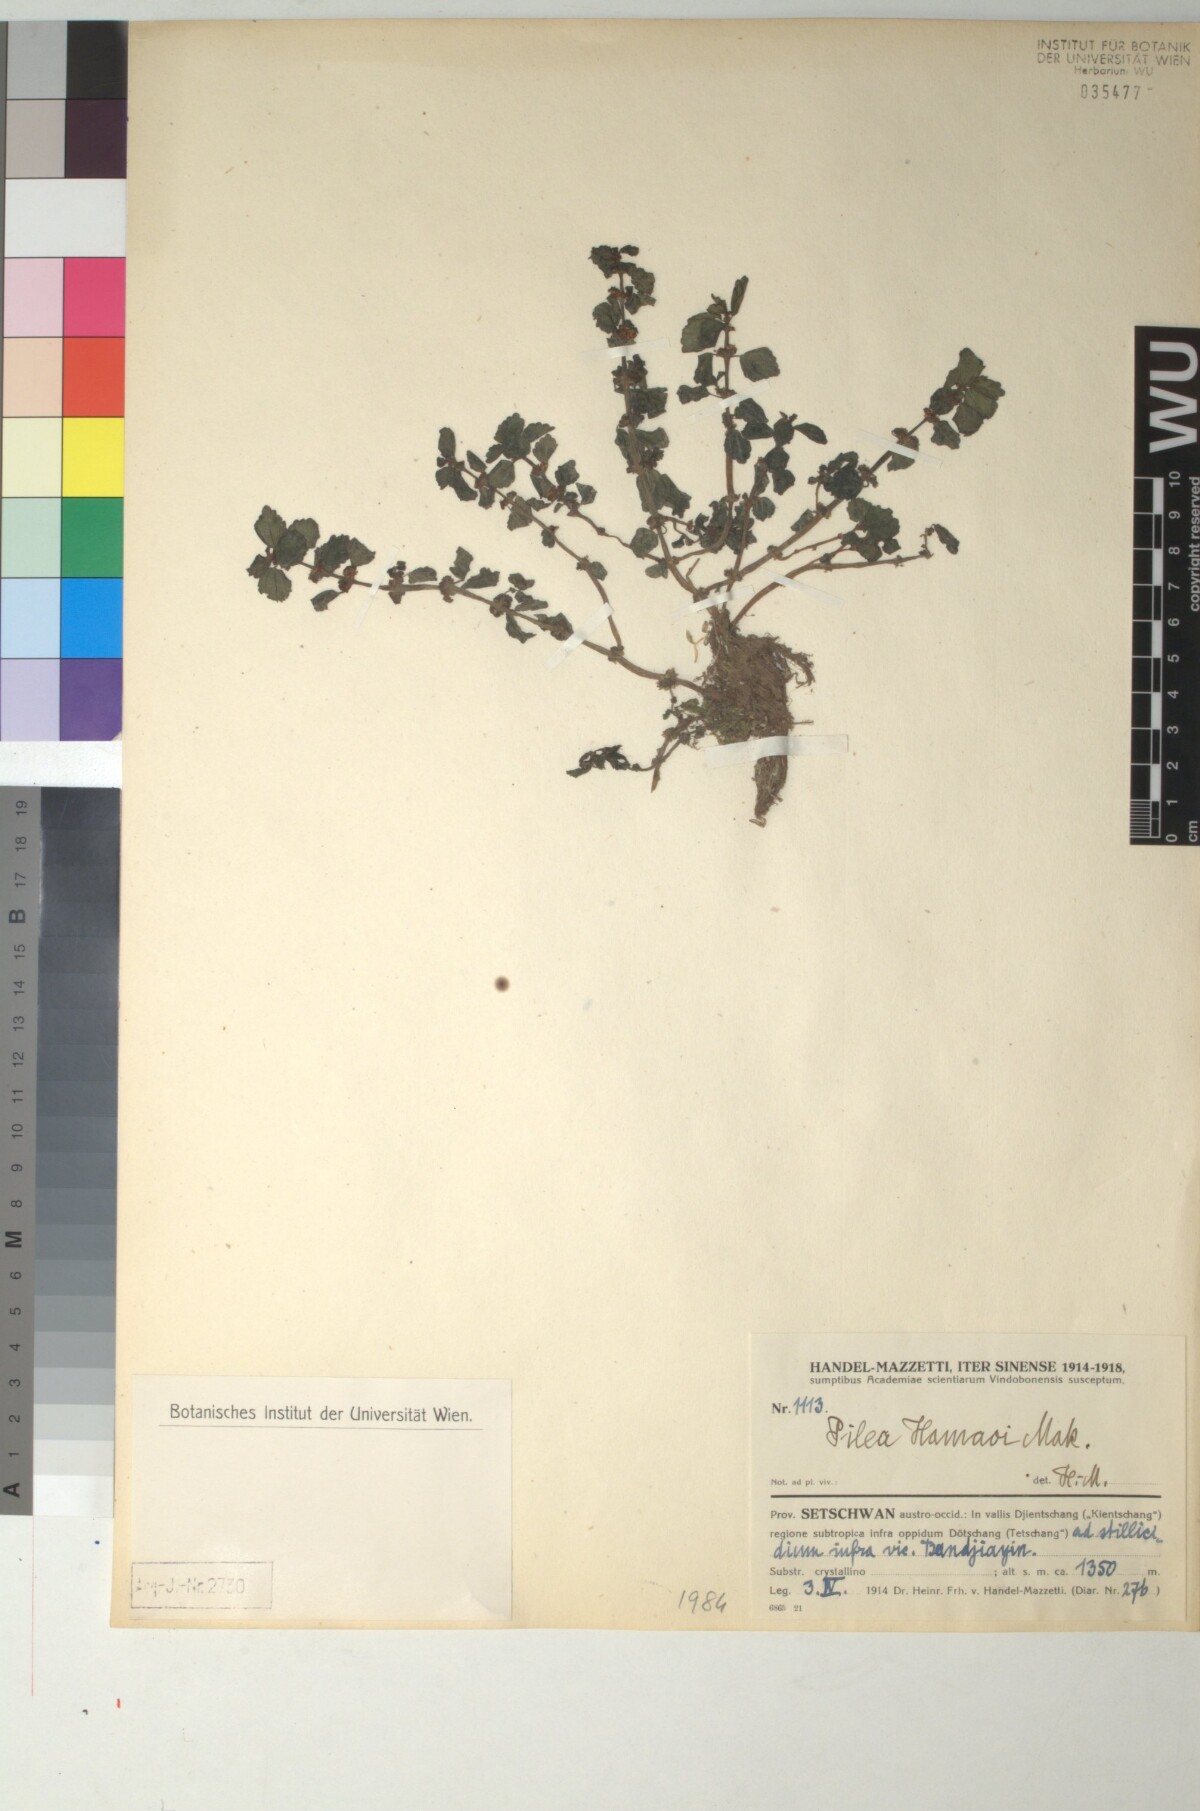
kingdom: Plantae
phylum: Tracheophyta
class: Magnoliopsida
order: Rosales
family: Urticaceae
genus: Pilea
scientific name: Pilea hamaoi
